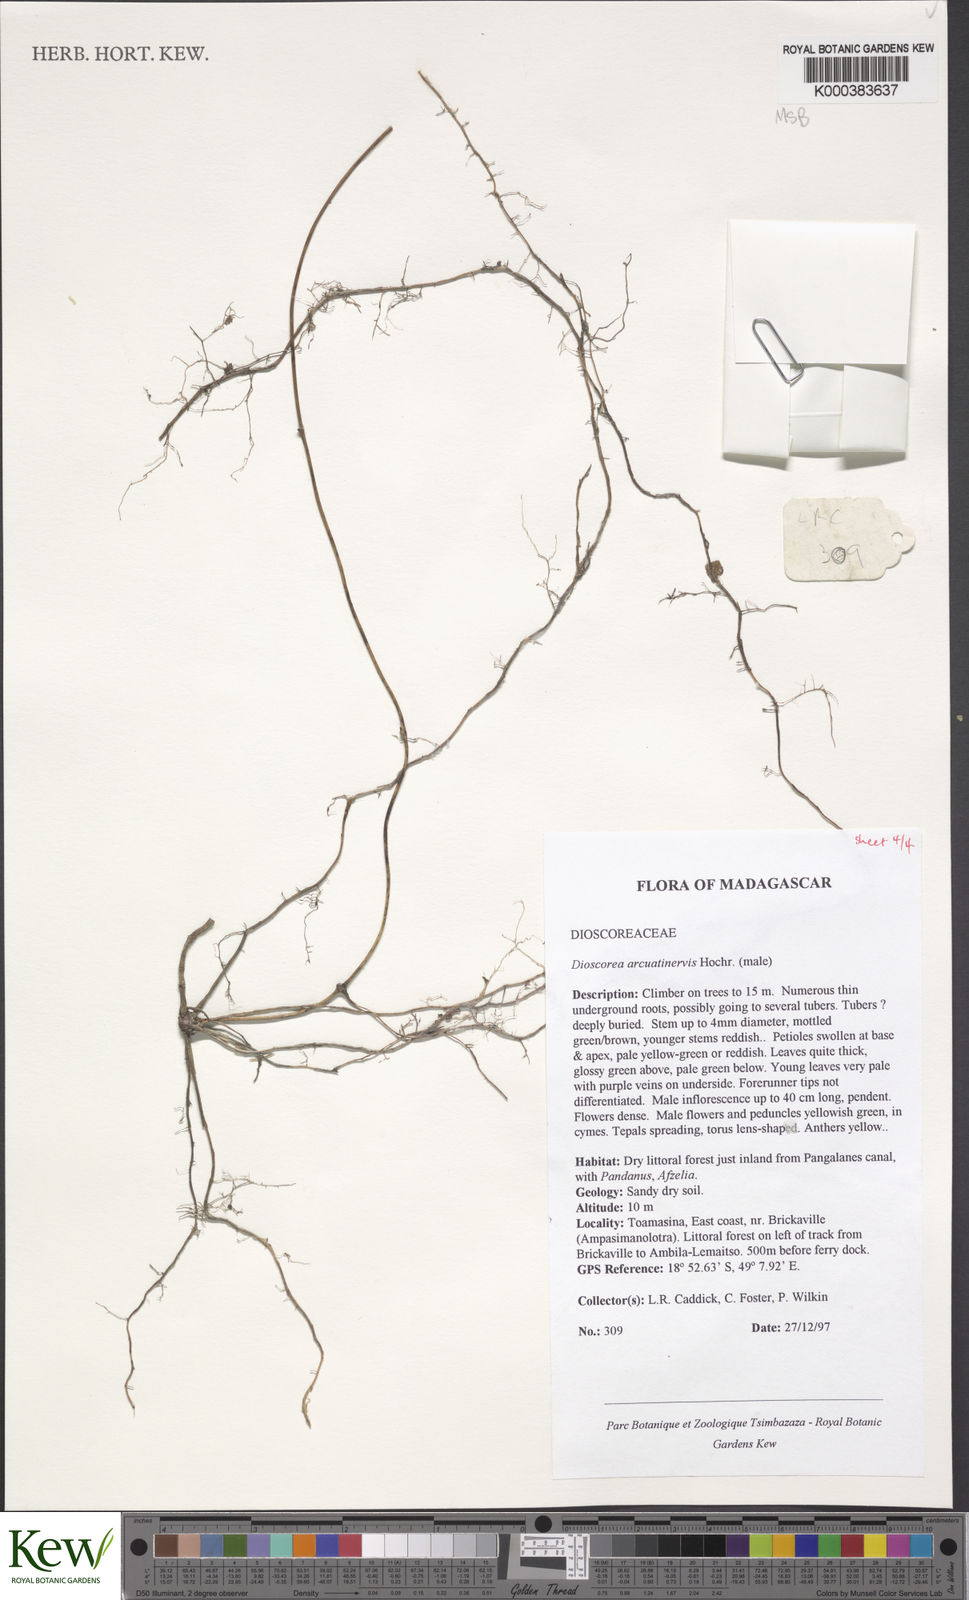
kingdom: Plantae
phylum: Tracheophyta
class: Liliopsida
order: Dioscoreales
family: Dioscoreaceae
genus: Dioscorea
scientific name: Dioscorea arcuatinervis
